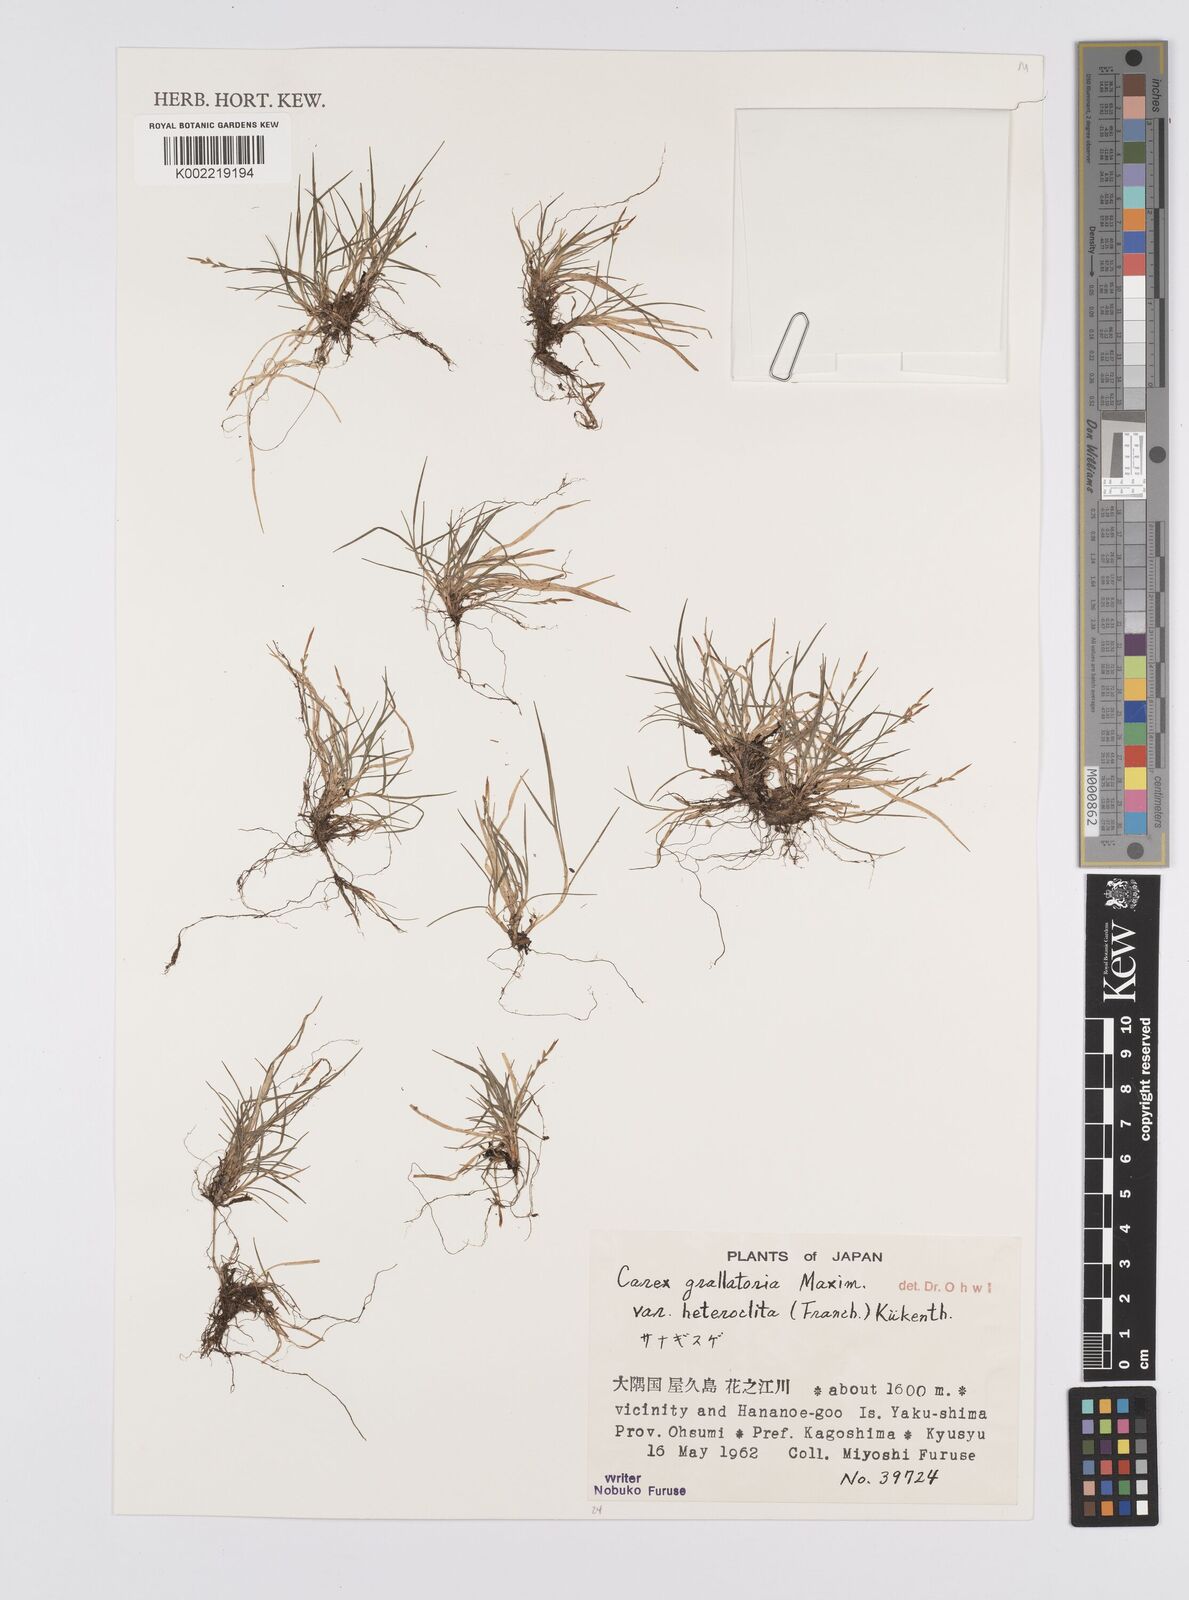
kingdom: Plantae
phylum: Tracheophyta
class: Liliopsida
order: Poales
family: Cyperaceae
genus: Carex
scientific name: Carex grallatoria
